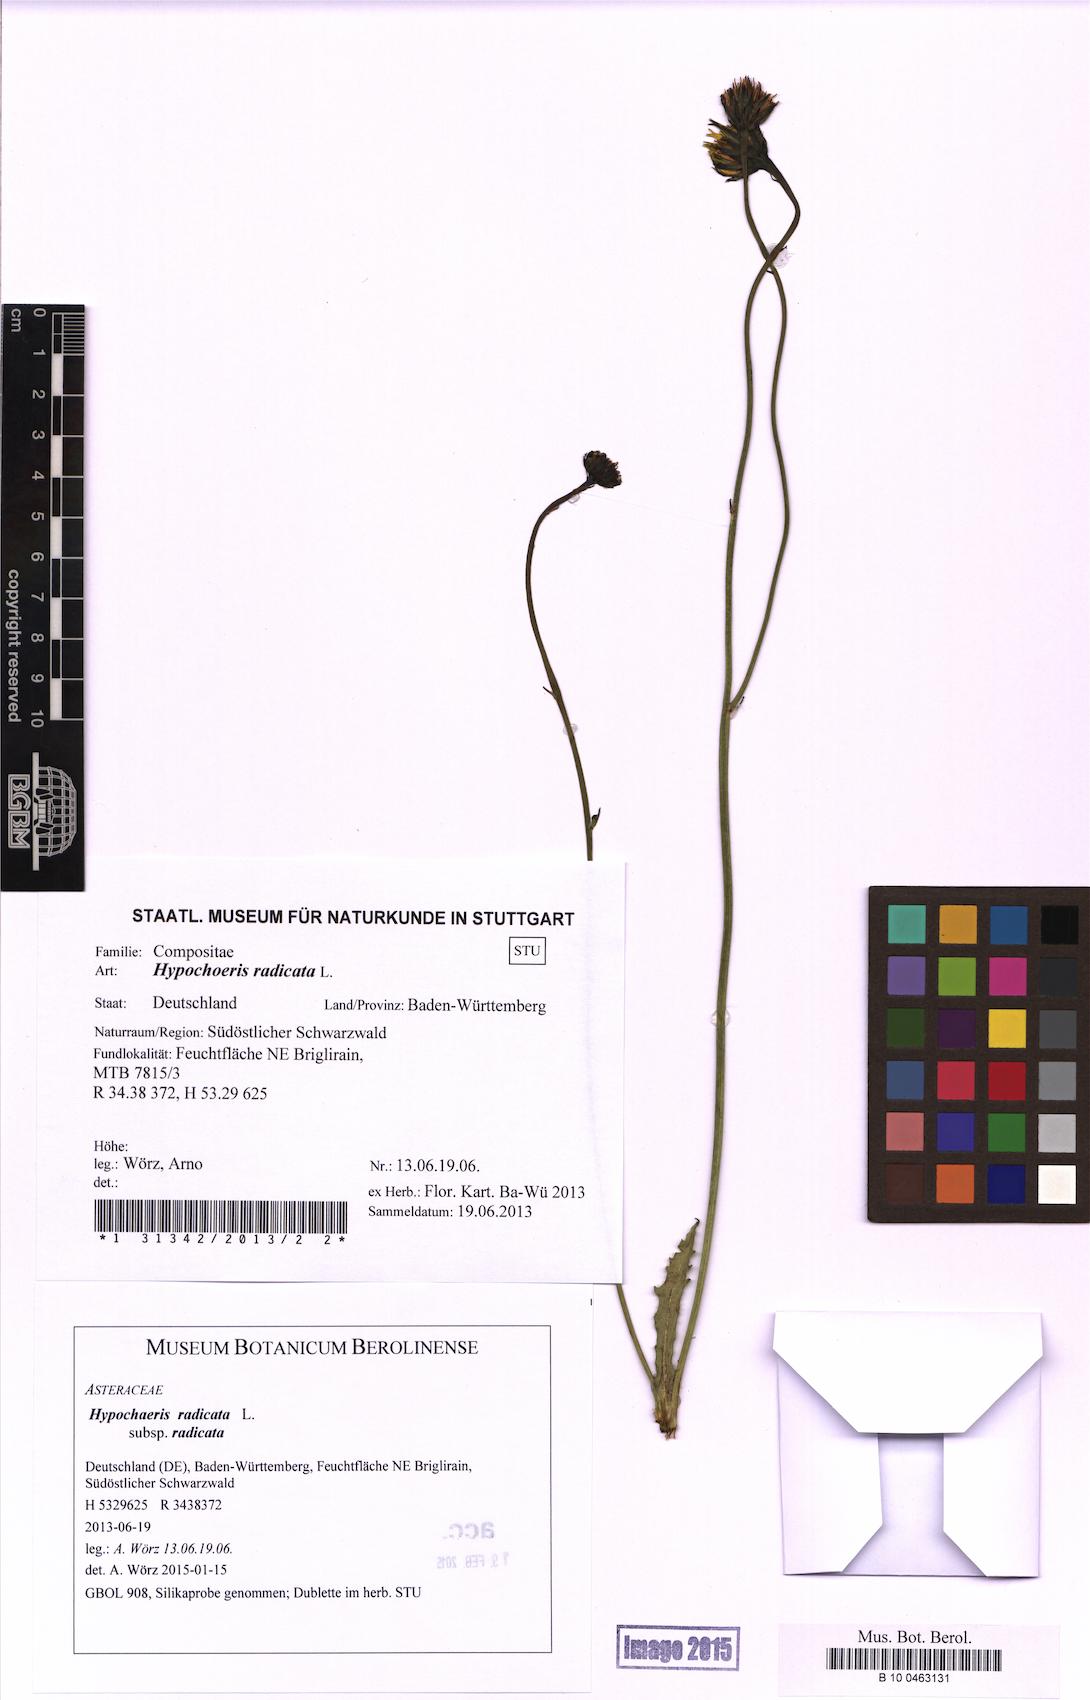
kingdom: Plantae
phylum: Tracheophyta
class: Magnoliopsida
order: Asterales
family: Asteraceae
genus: Hypochaeris
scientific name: Hypochaeris radicata
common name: Flatweed
